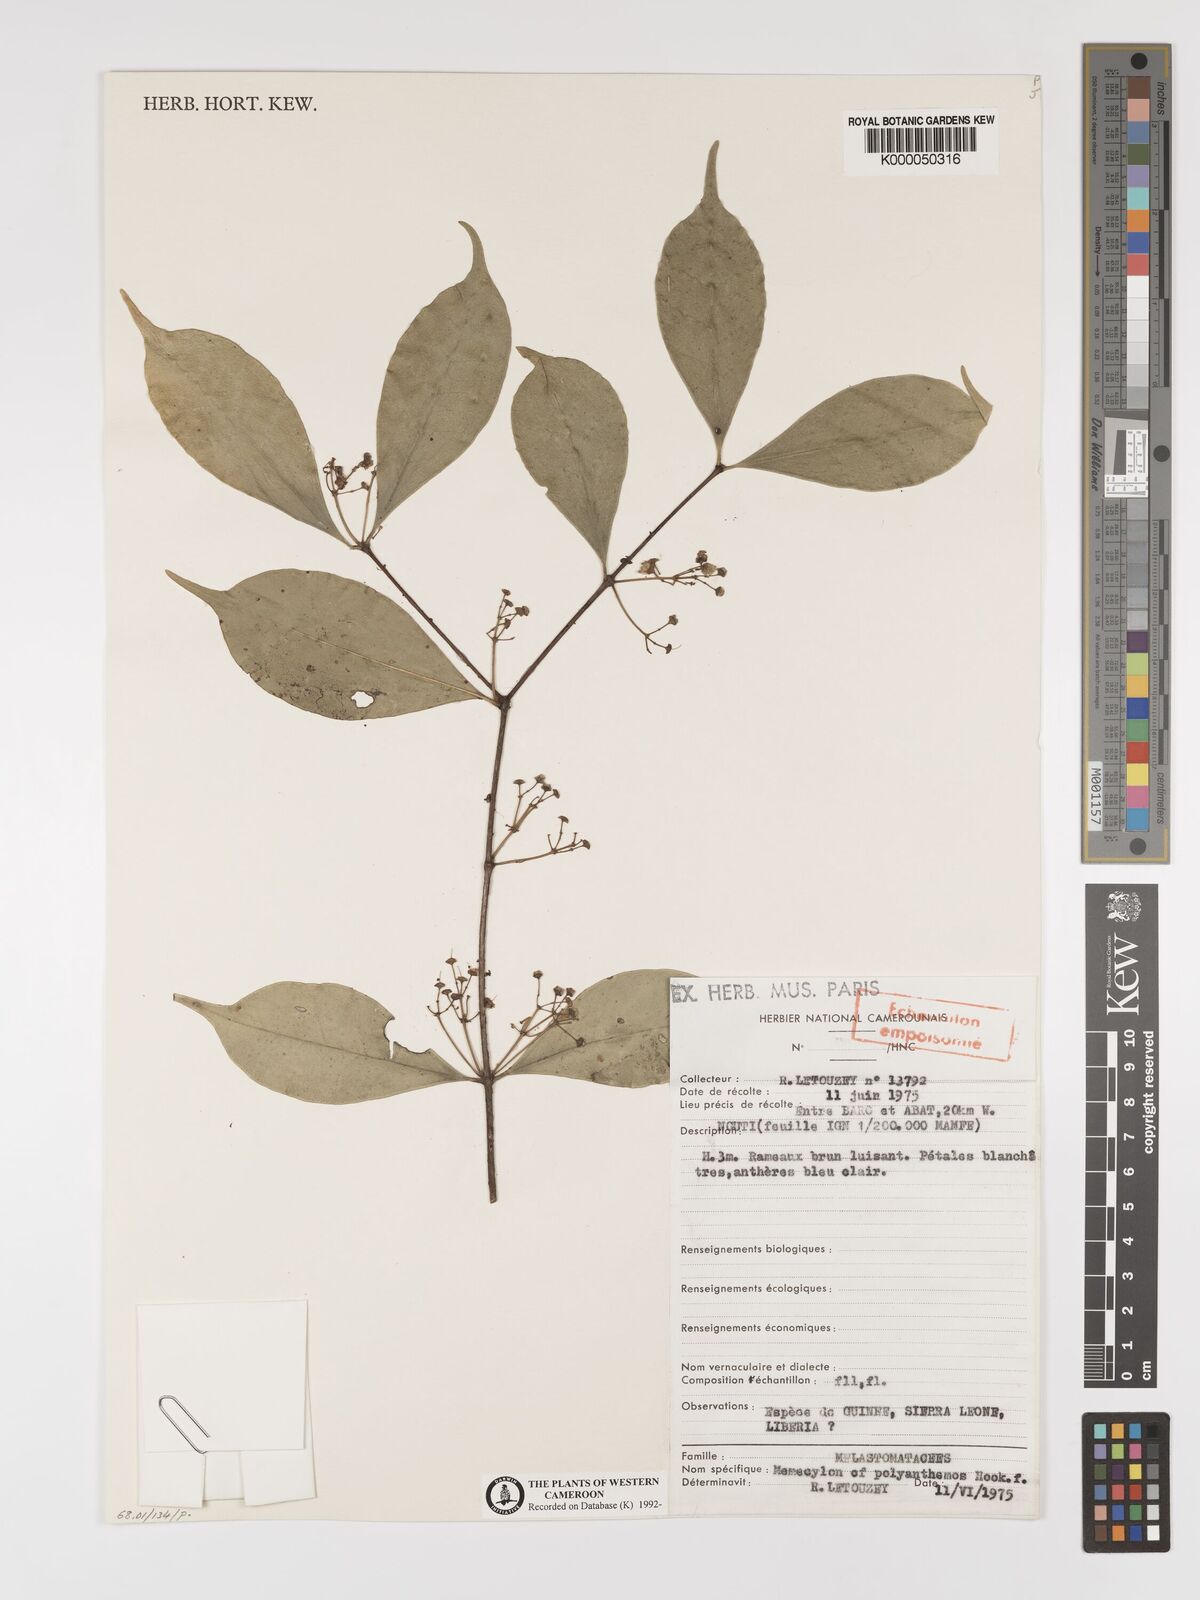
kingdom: Plantae
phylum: Tracheophyta
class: Magnoliopsida
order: Myrtales
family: Melastomataceae
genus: Memecylon
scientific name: Memecylon
